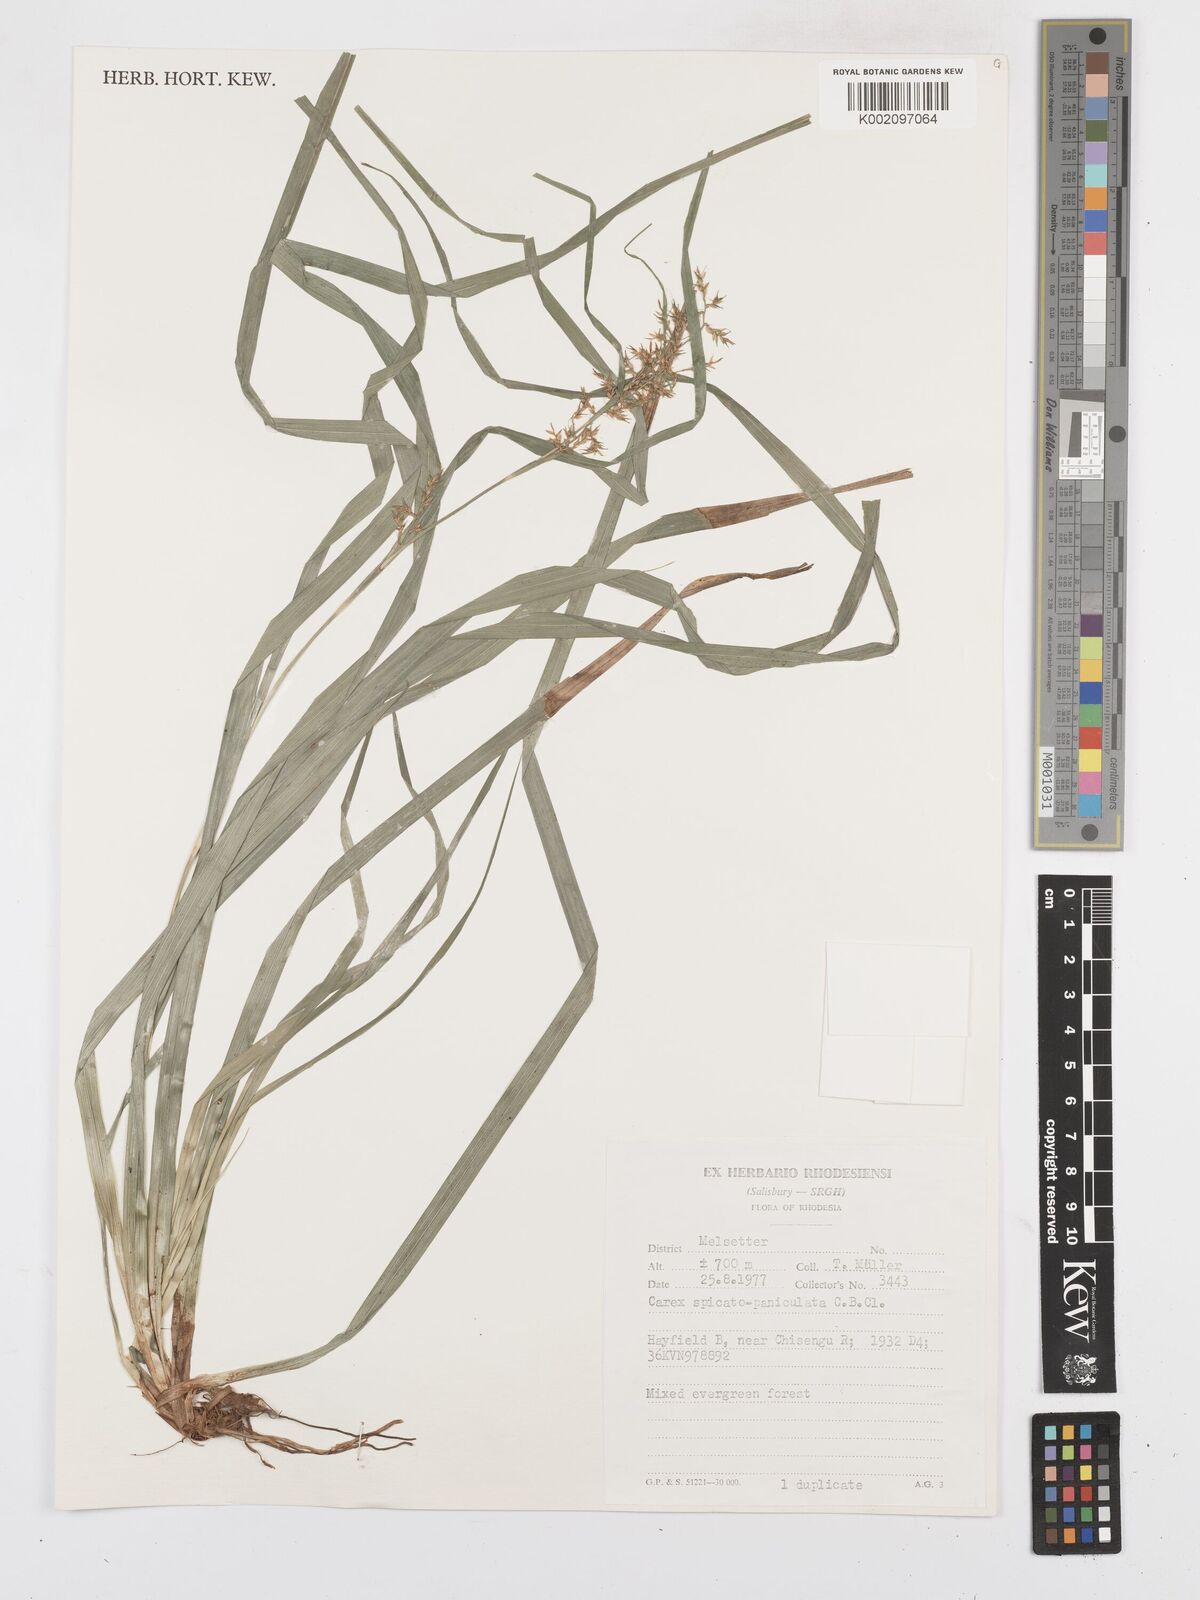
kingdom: Plantae
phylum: Tracheophyta
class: Liliopsida
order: Poales
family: Cyperaceae
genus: Carex
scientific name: Carex spicatopaniculata
